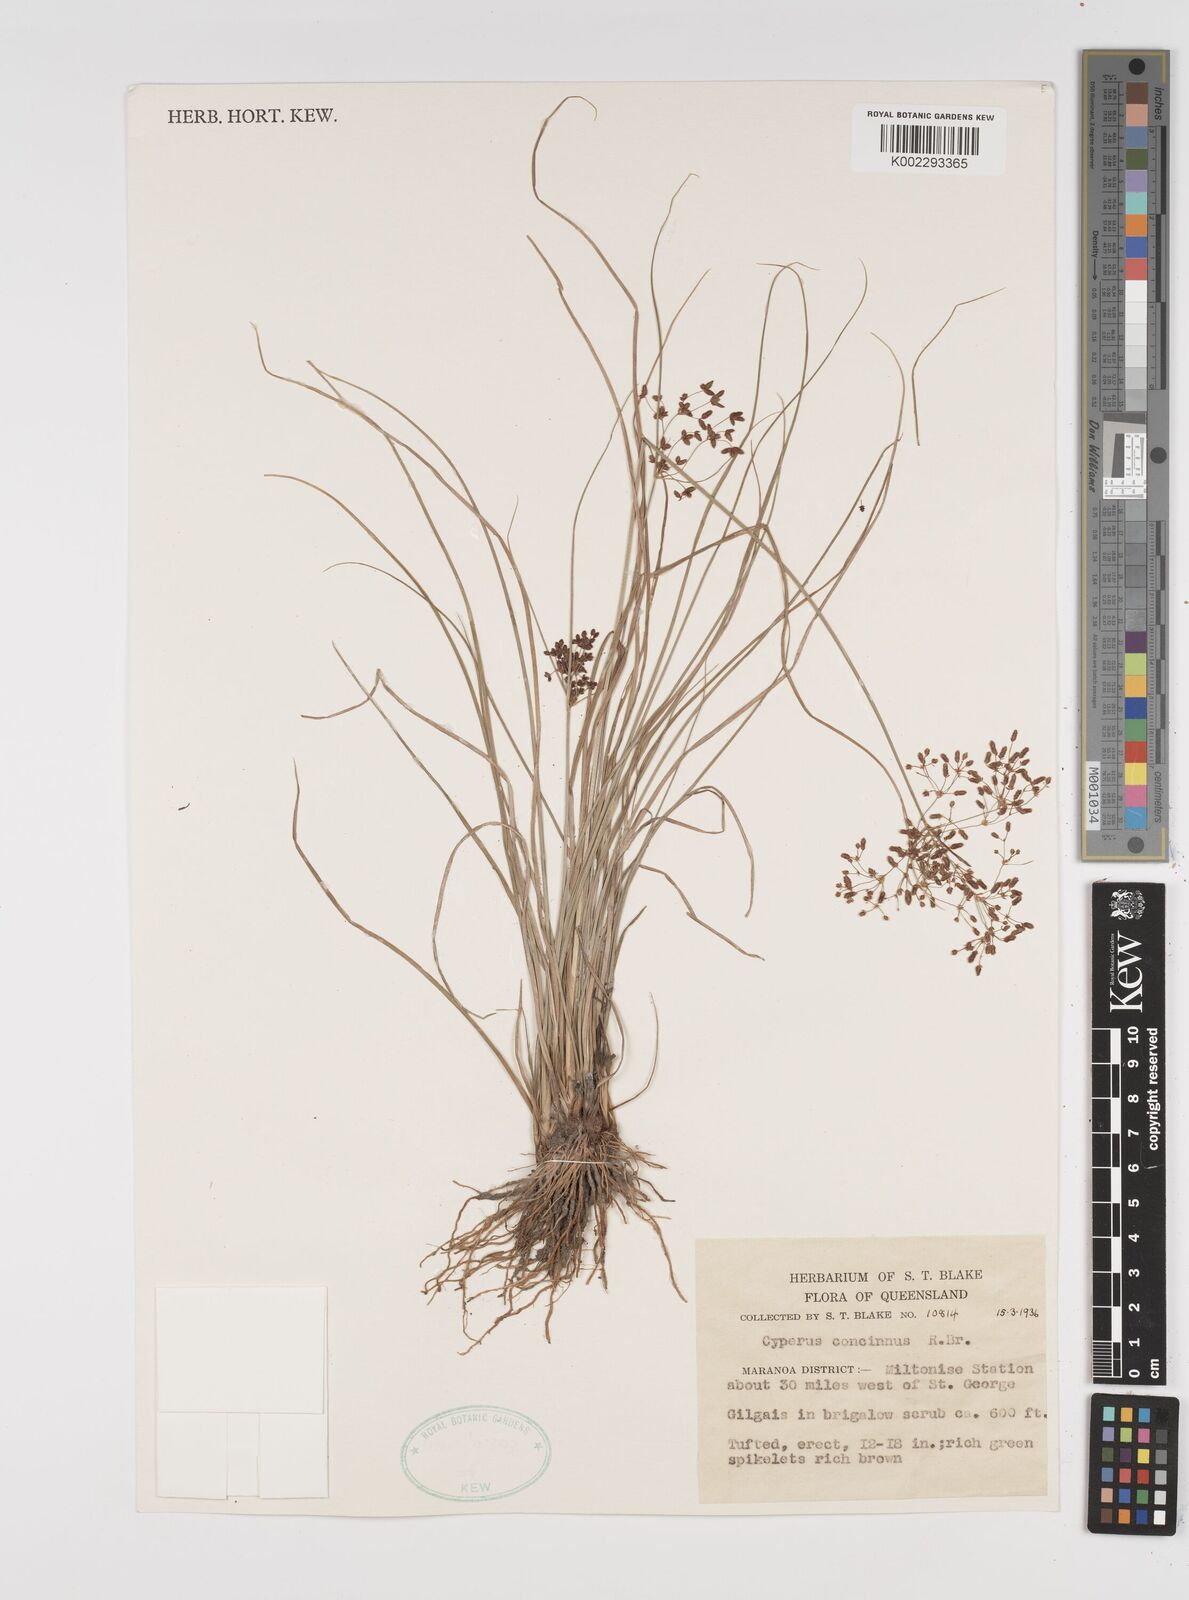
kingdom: Plantae
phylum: Tracheophyta
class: Liliopsida
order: Poales
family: Cyperaceae
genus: Cyperus
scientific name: Cyperus concinnus
